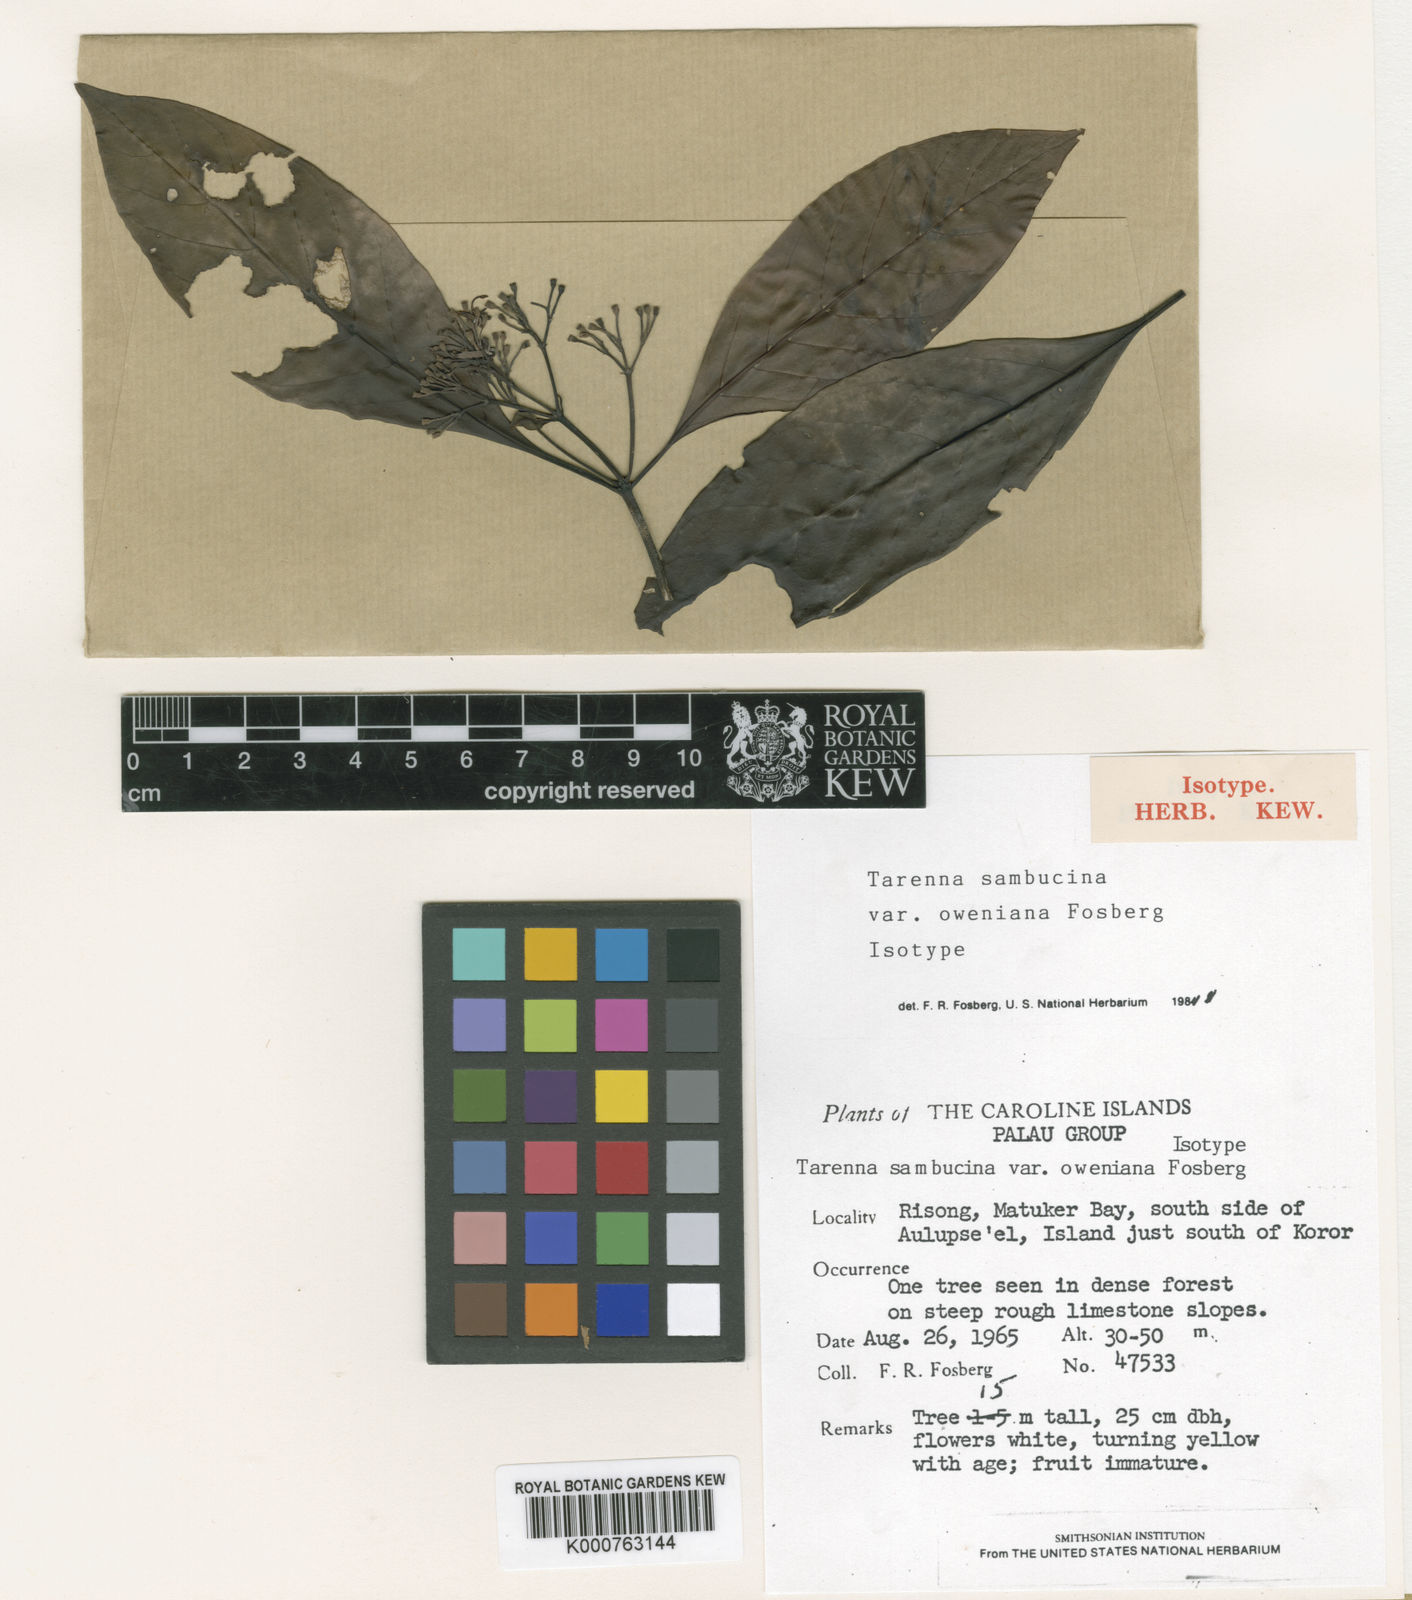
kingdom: Plantae
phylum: Tracheophyta
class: Magnoliopsida
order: Gentianales
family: Rubiaceae
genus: Tarenna
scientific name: Tarenna sambucina
